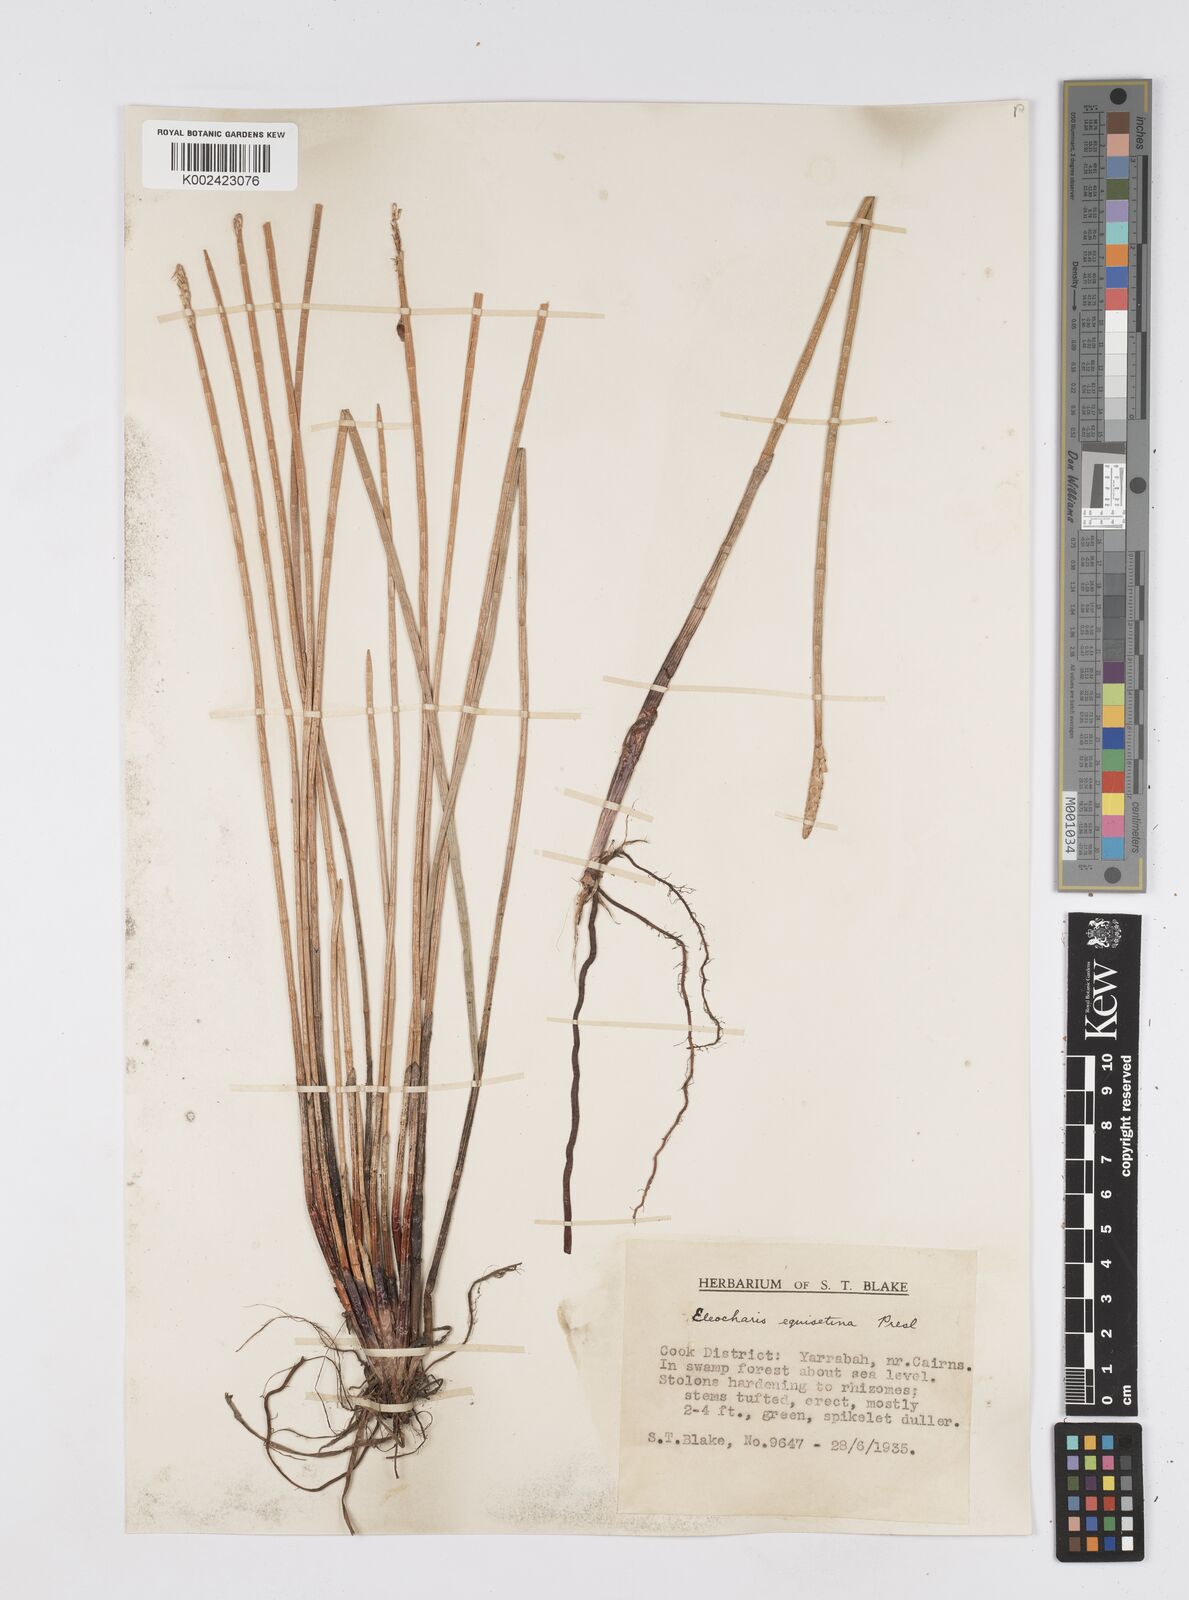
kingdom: Plantae
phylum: Tracheophyta
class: Liliopsida
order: Poales
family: Cyperaceae
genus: Eleocharis
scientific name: Eleocharis dulcis
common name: Chinese water chestnut
